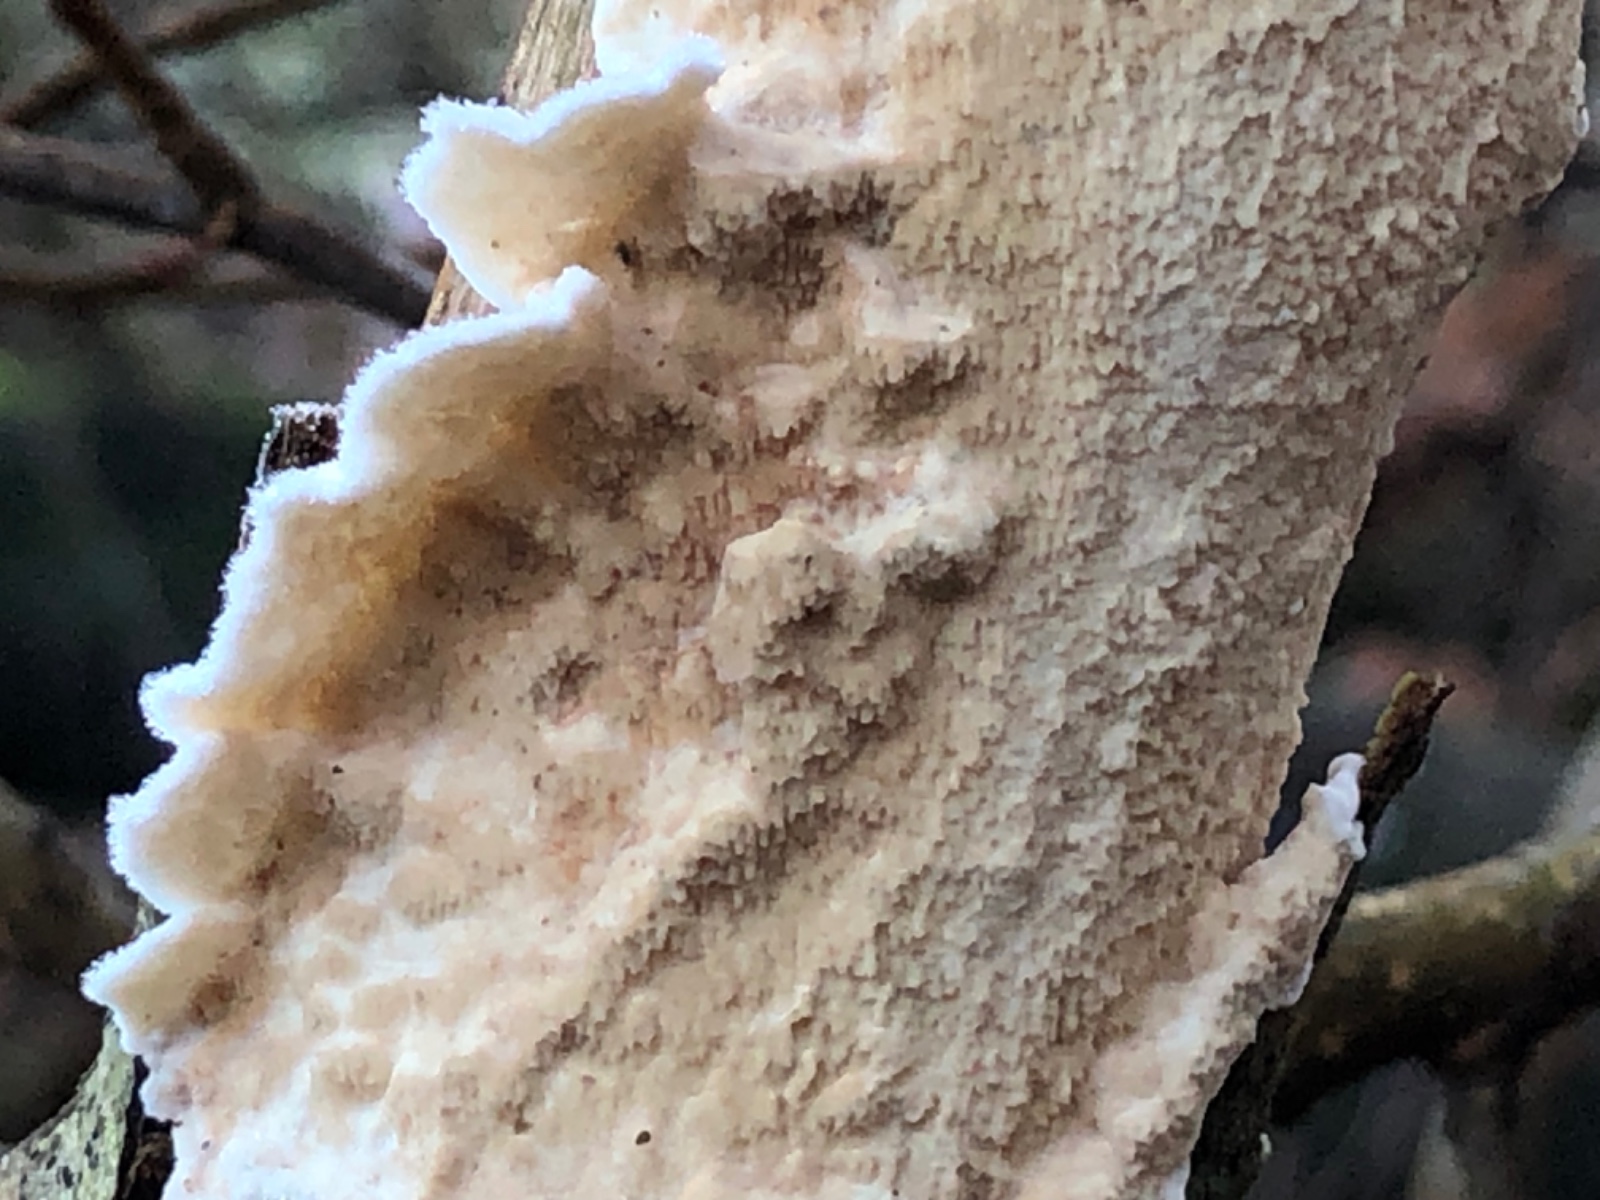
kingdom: Fungi
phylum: Basidiomycota
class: Agaricomycetes
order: Polyporales
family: Irpicaceae
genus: Byssomerulius
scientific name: Byssomerulius corium
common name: læder-åresvamp
